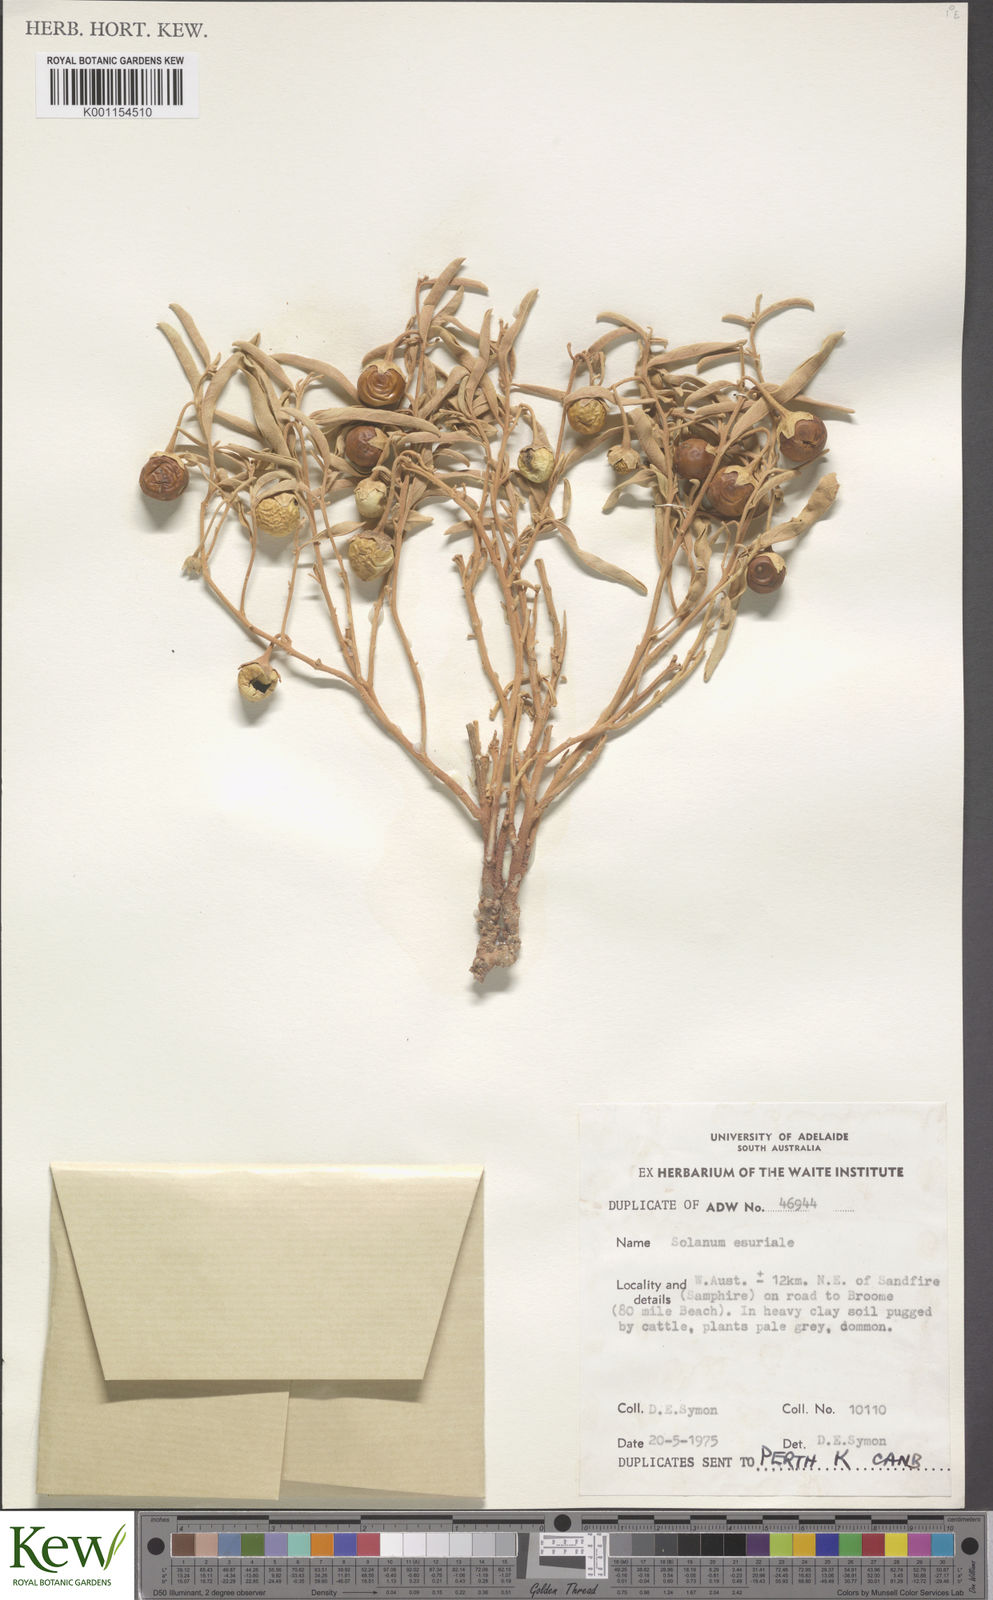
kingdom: Plantae
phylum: Tracheophyta
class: Magnoliopsida
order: Solanales
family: Solanaceae
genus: Solanum
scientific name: Solanum esuriale
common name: Wild tomato
